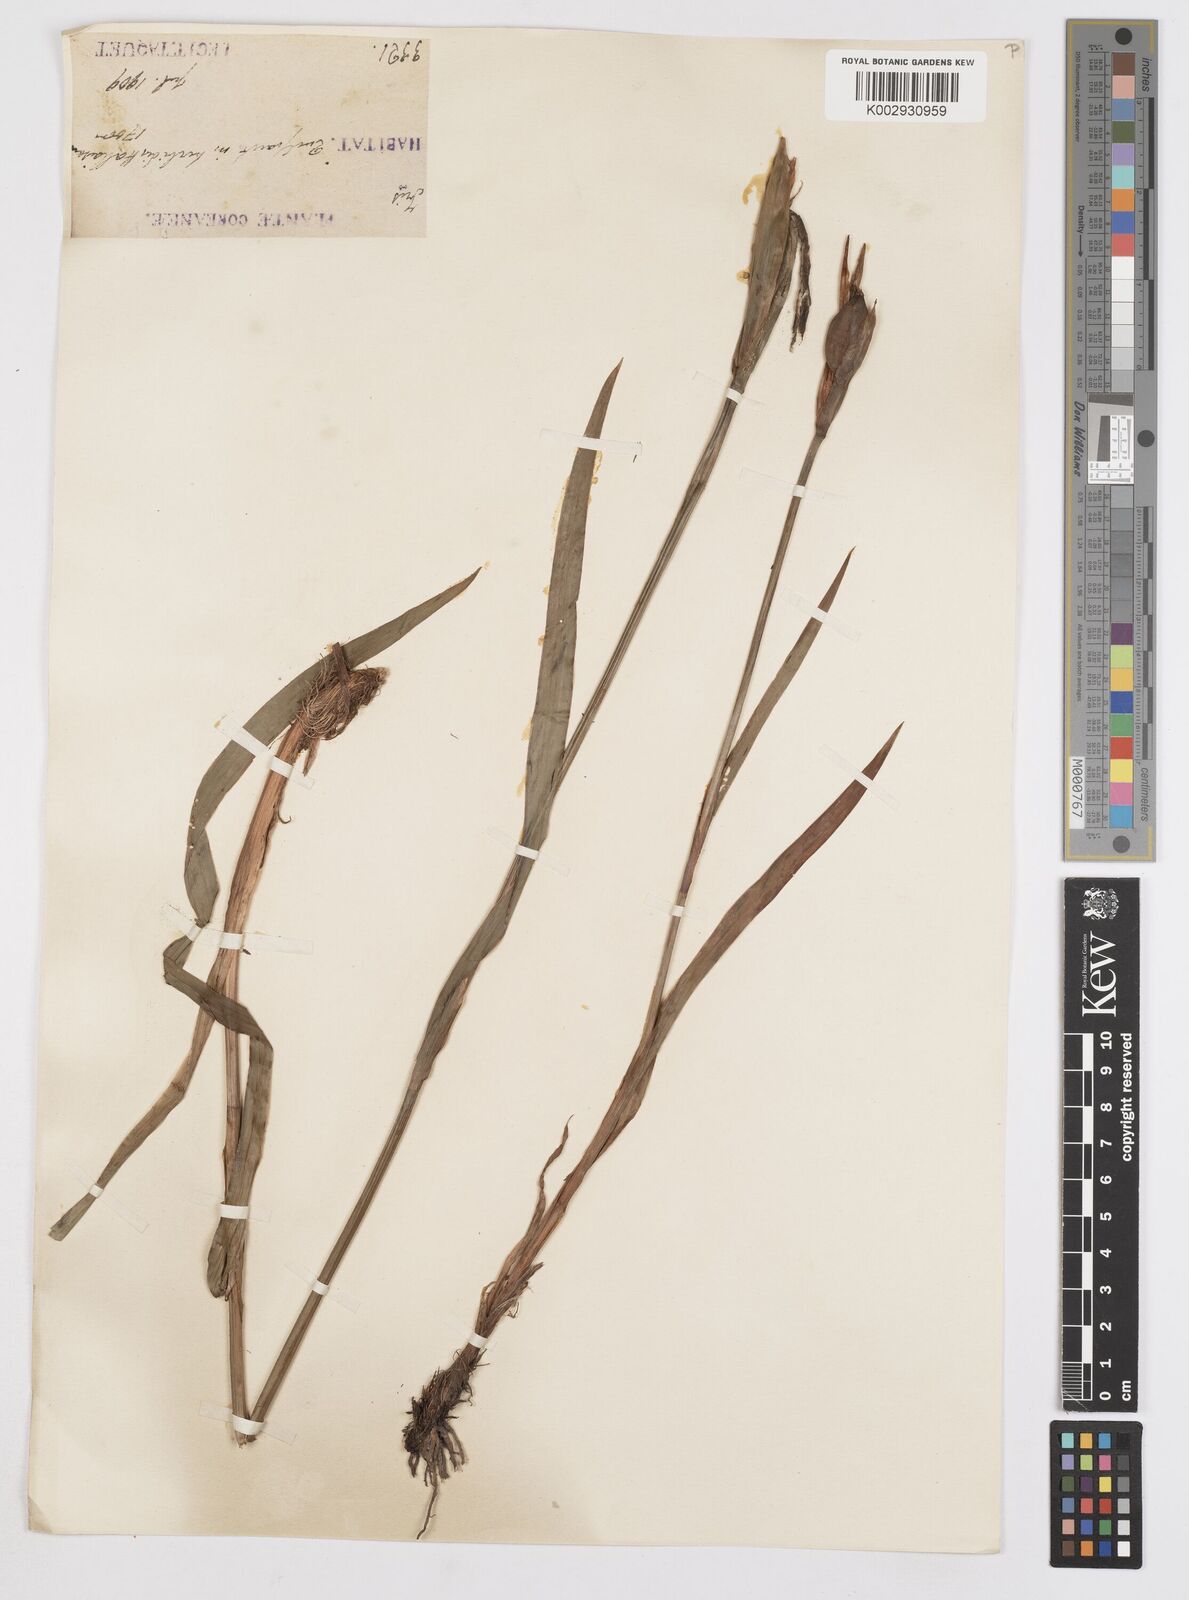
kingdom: Plantae
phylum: Tracheophyta
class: Liliopsida
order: Asparagales
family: Iridaceae
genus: Iris
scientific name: Iris
